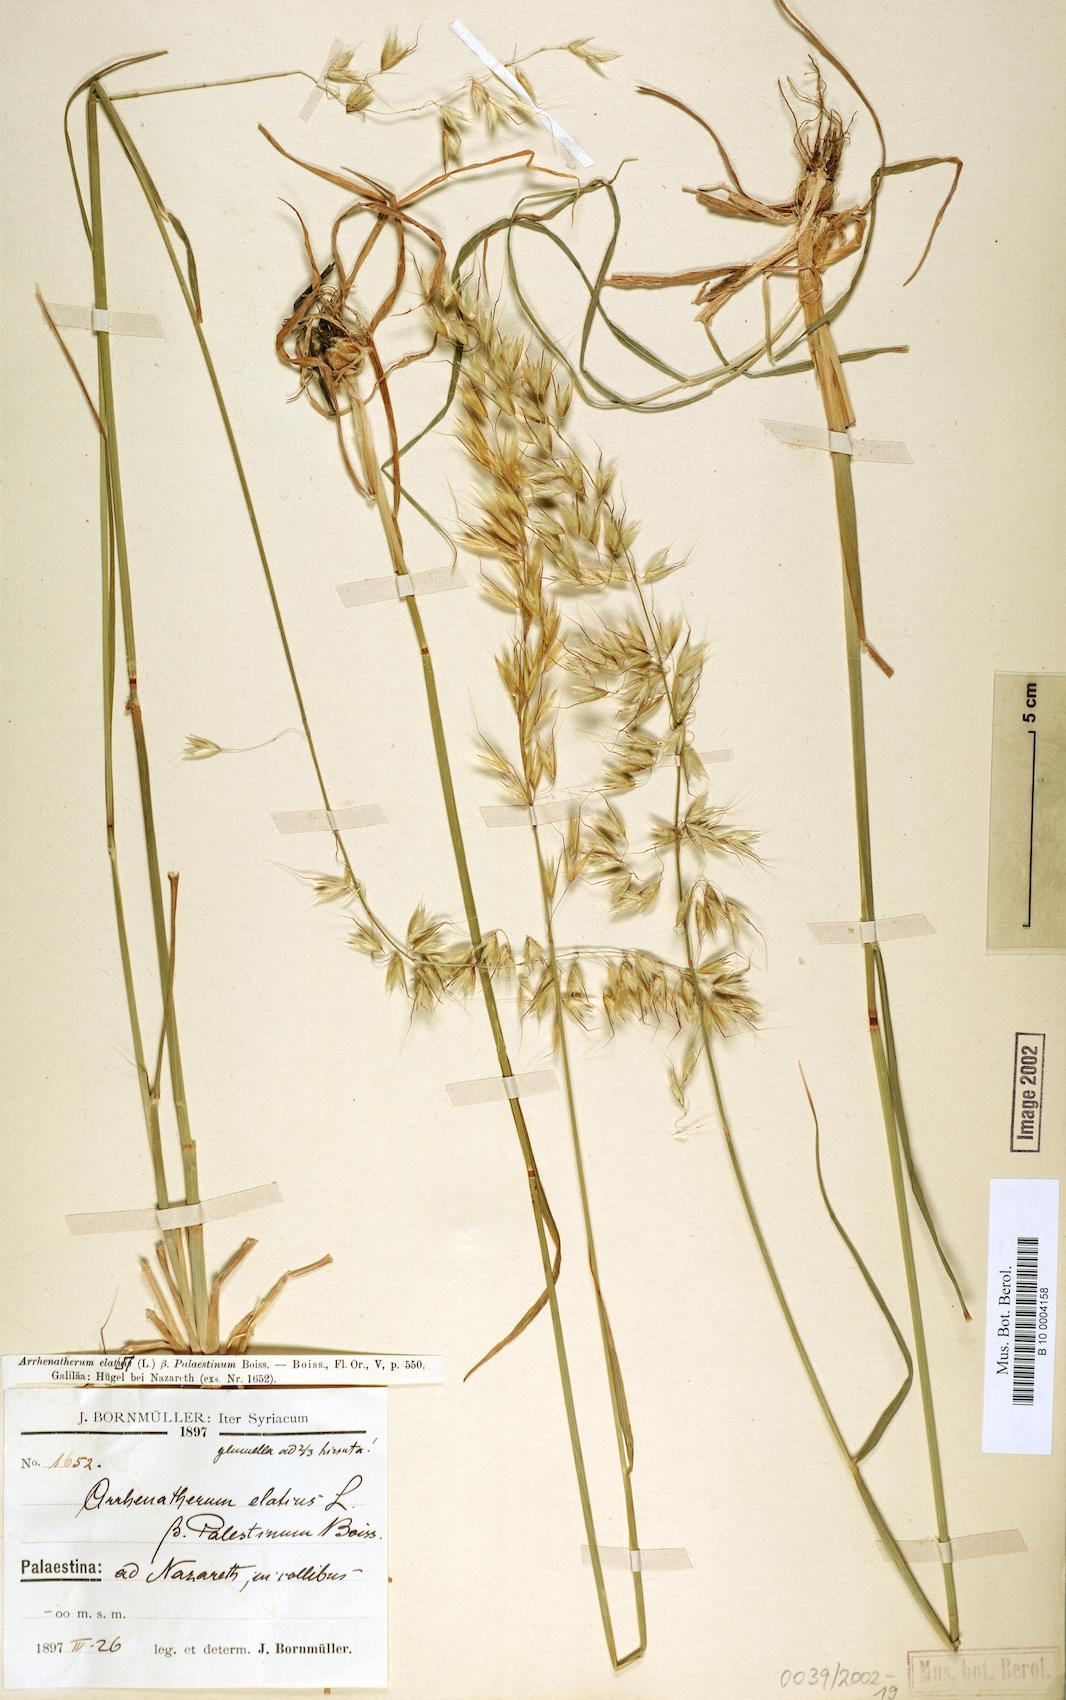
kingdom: Plantae
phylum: Tracheophyta
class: Liliopsida
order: Poales
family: Poaceae
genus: Arrhenatherum
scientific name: Arrhenatherum palaestinum
